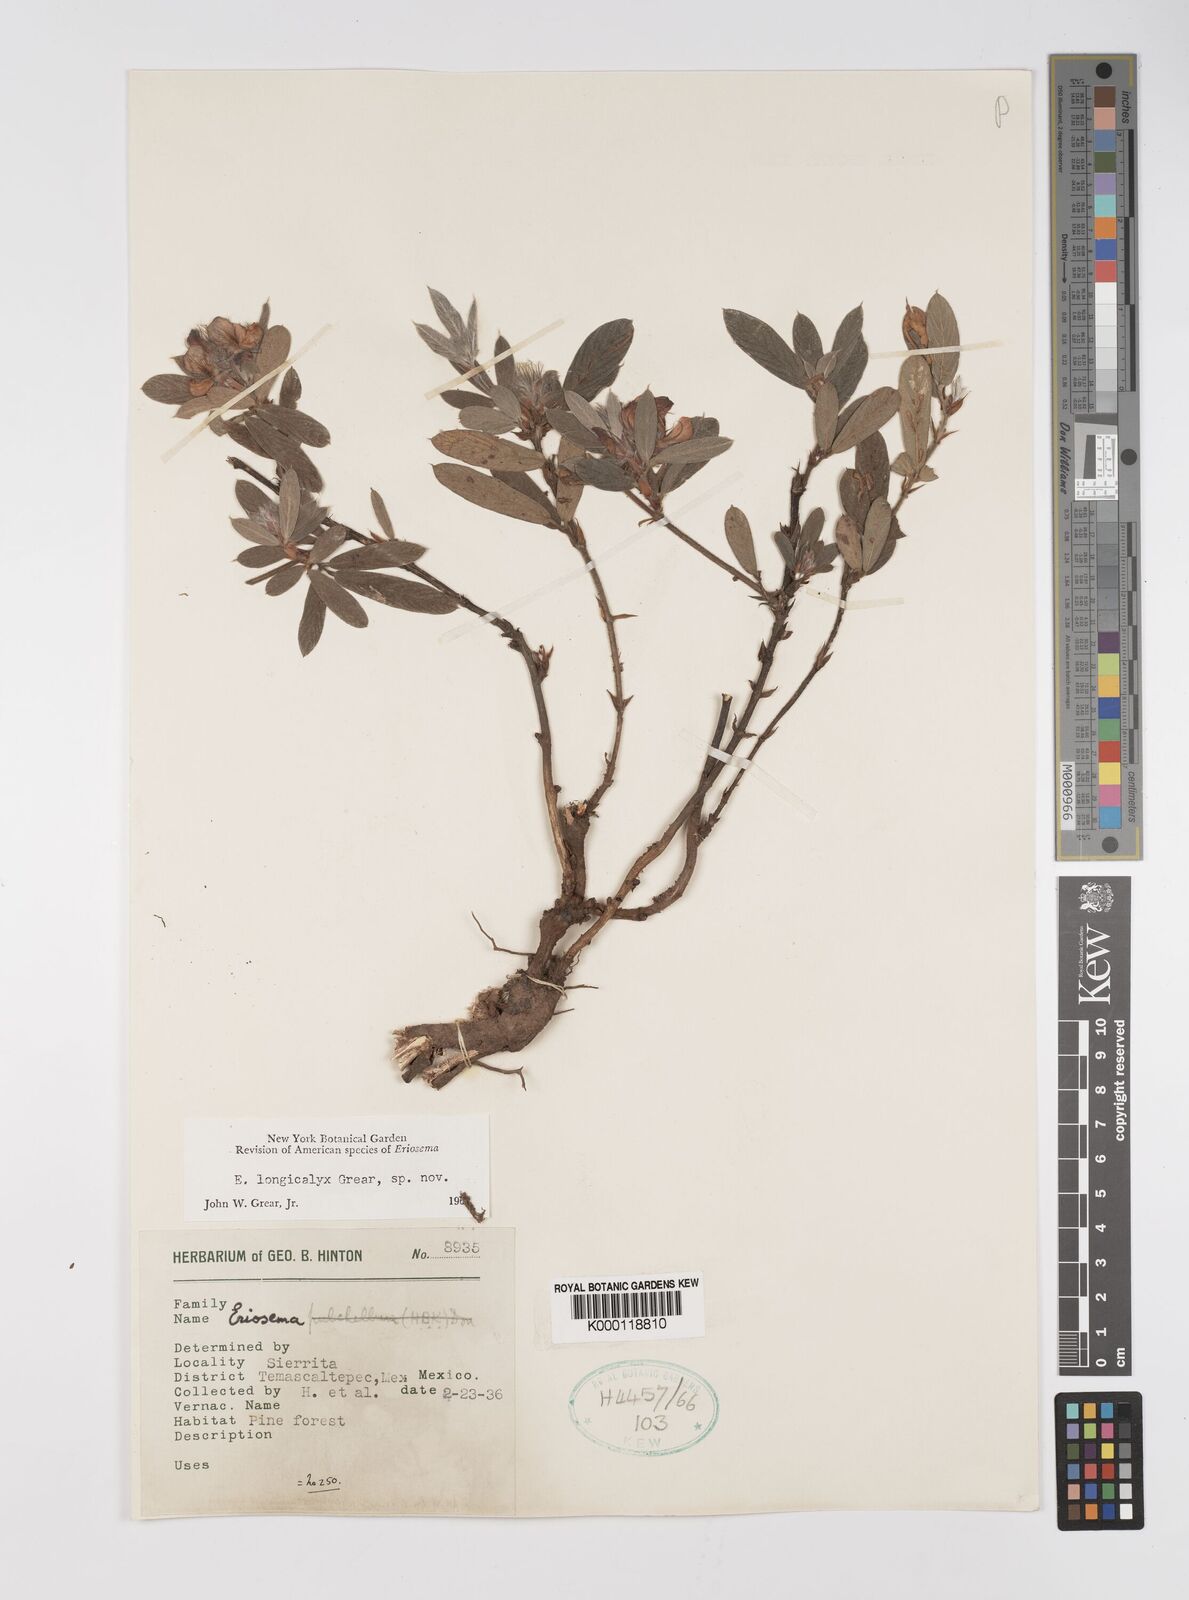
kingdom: Plantae
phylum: Tracheophyta
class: Magnoliopsida
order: Fabales
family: Fabaceae
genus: Eriosema
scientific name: Eriosema longicalyx
